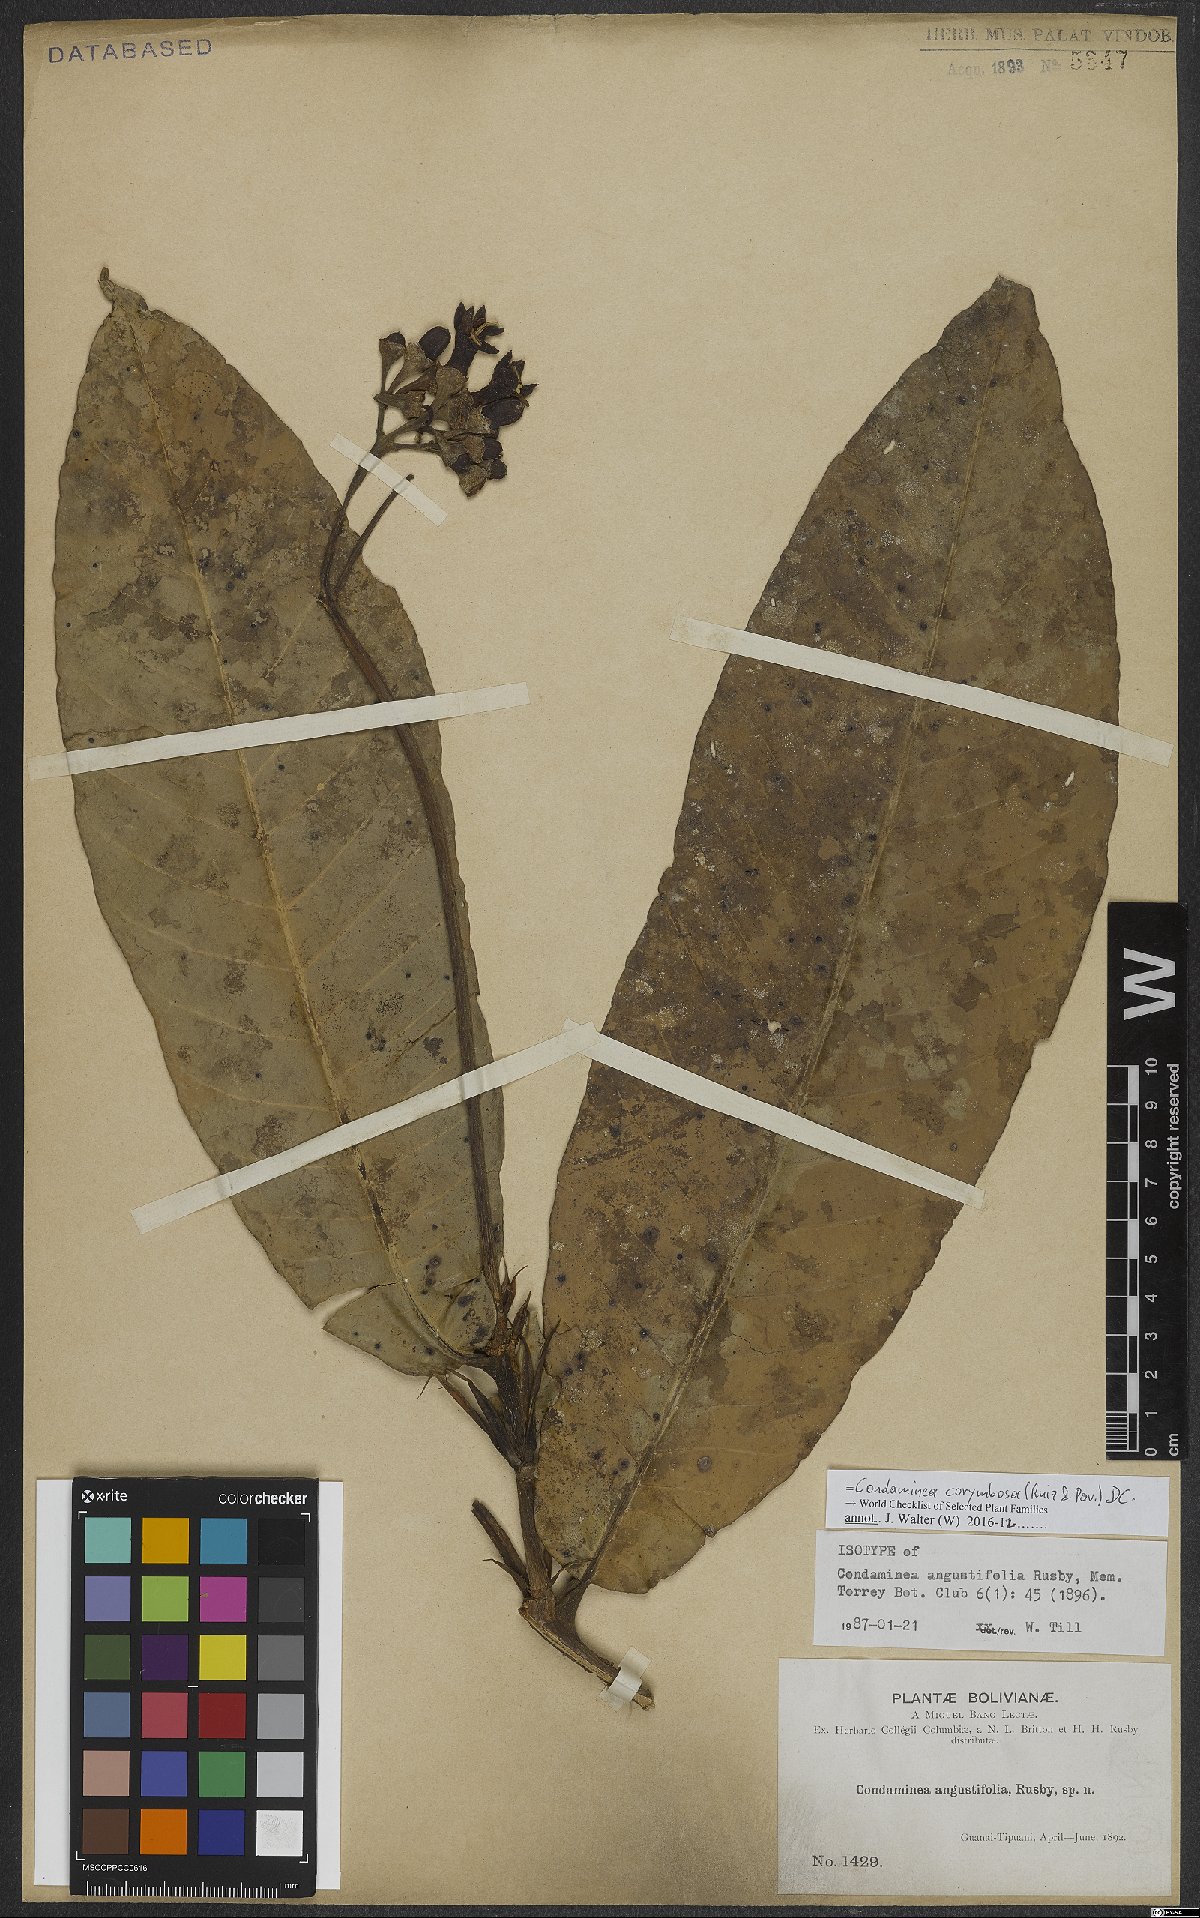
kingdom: Plantae
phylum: Tracheophyta
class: Magnoliopsida
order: Gentianales
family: Rubiaceae
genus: Condaminea
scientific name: Condaminea corymbosa
